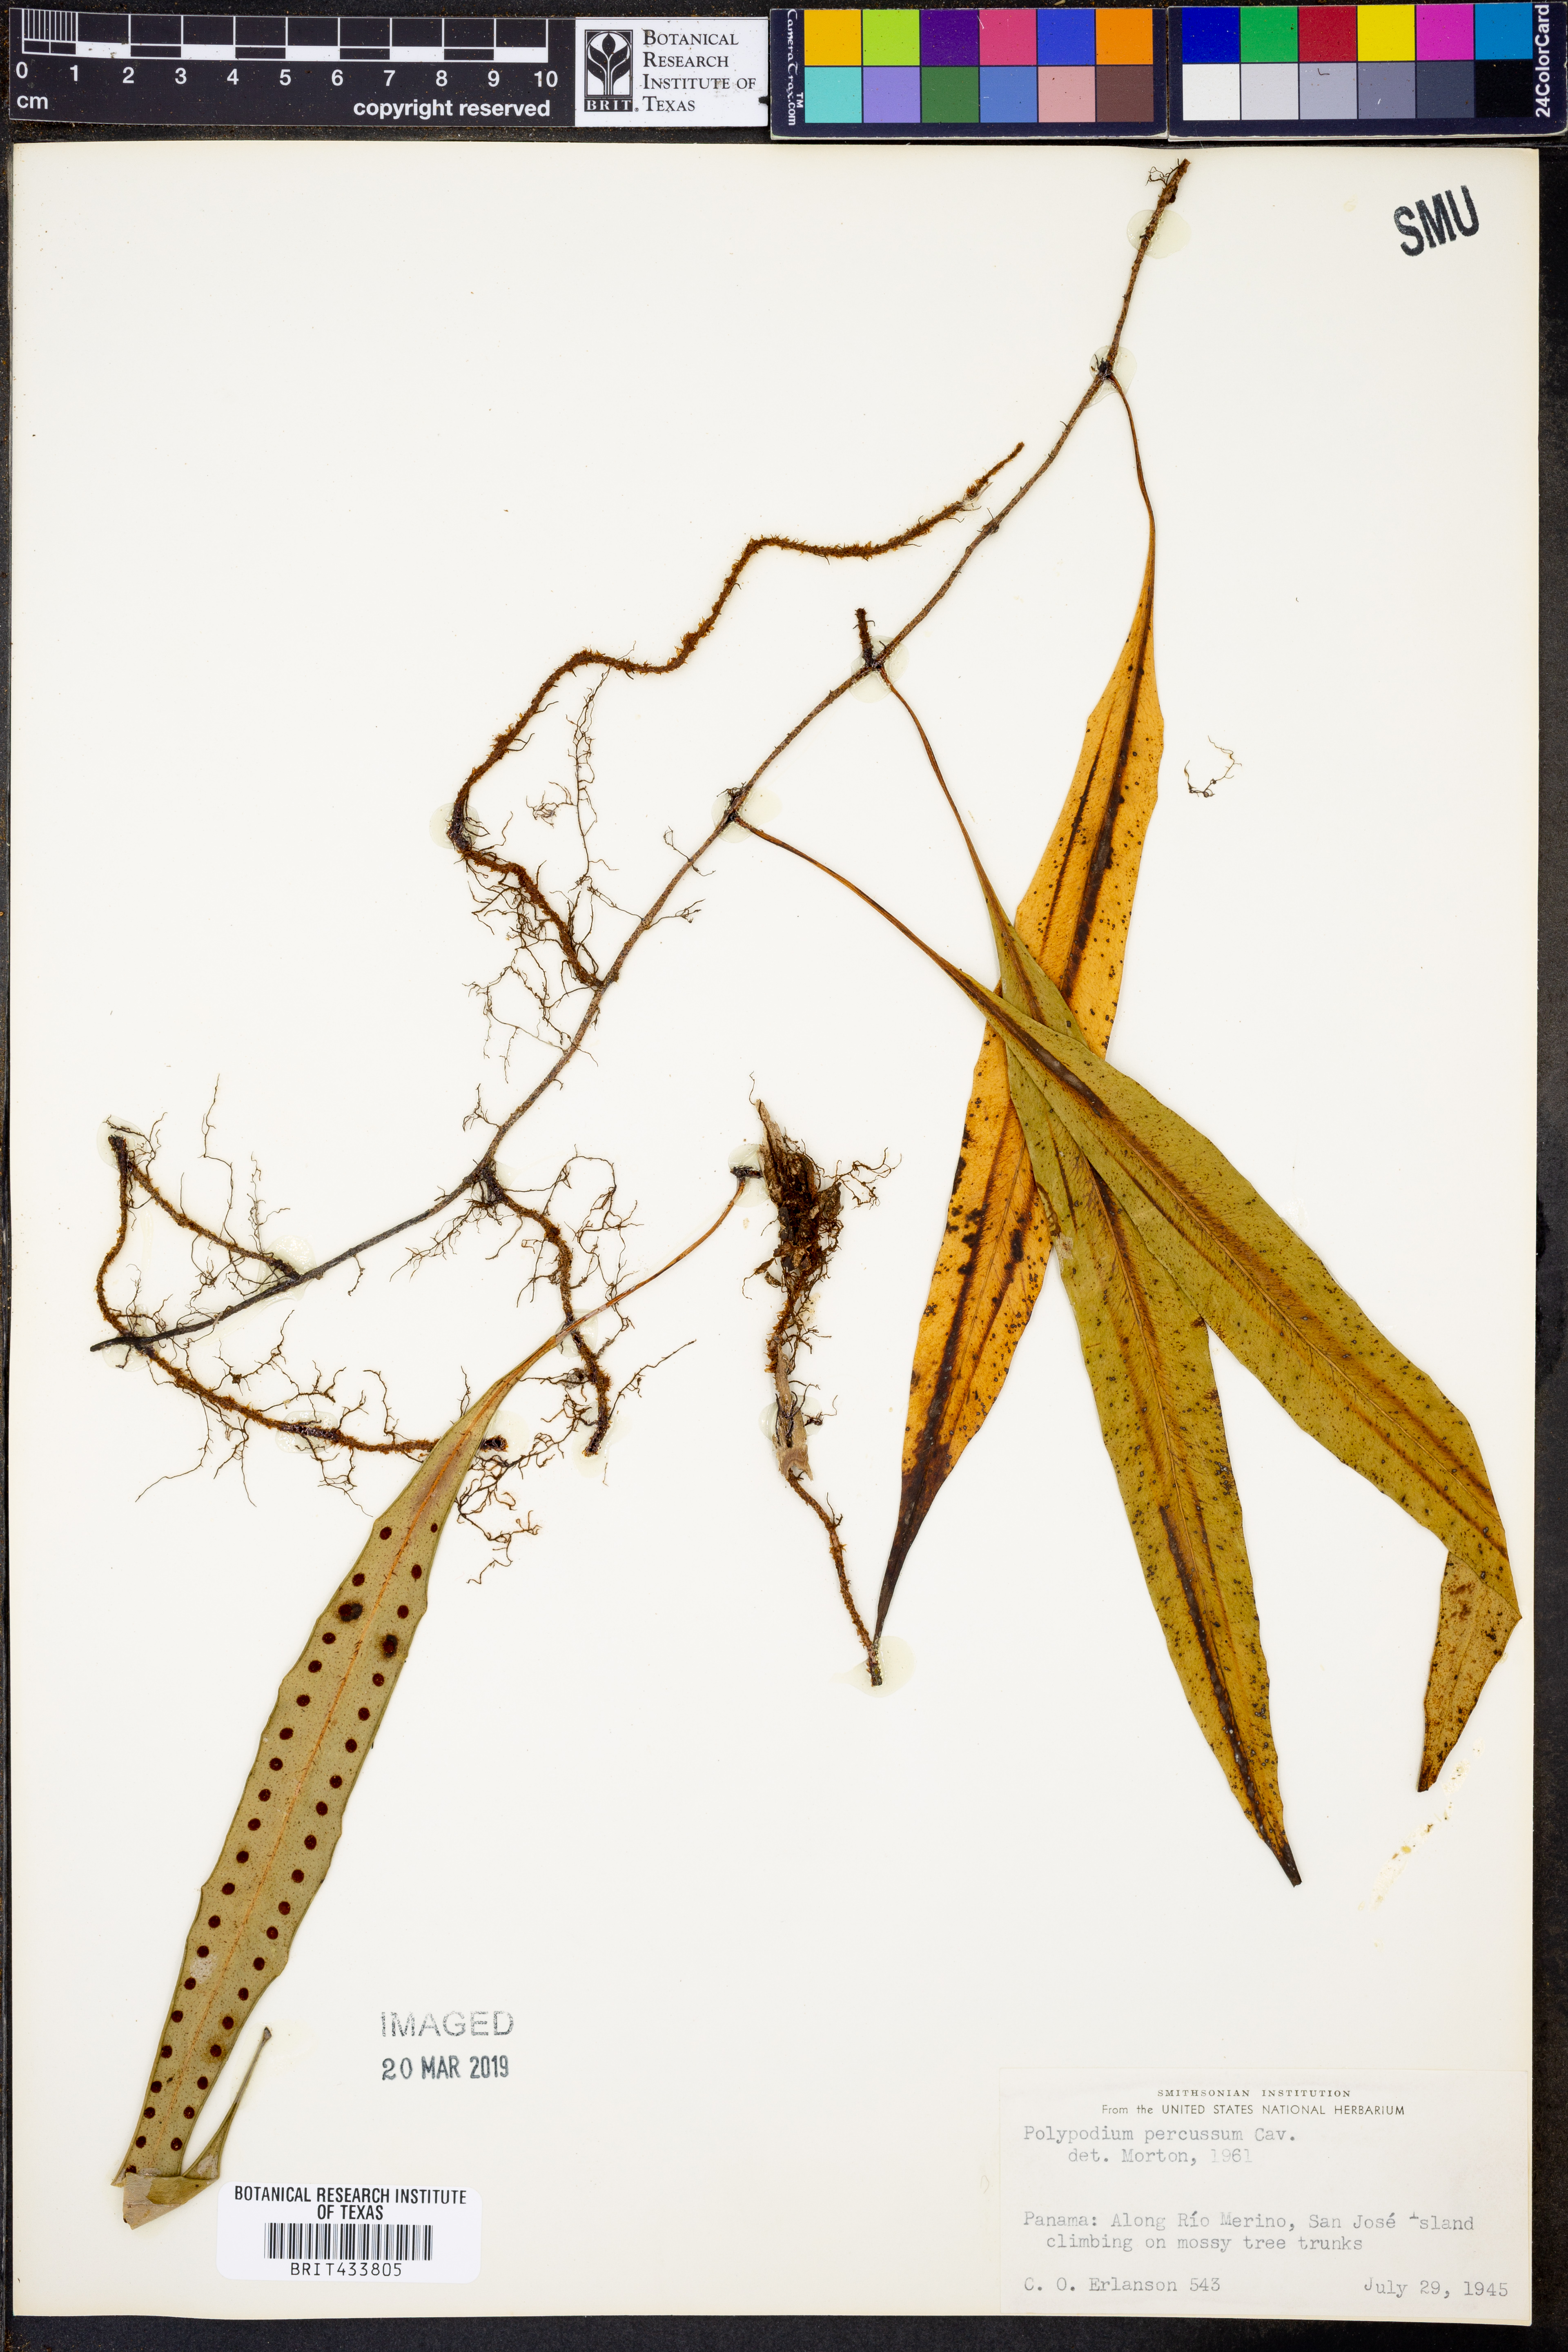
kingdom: Plantae
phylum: Tracheophyta
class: Polypodiopsida
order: Polypodiales
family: Polypodiaceae
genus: Microgramma
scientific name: Microgramma percussa
